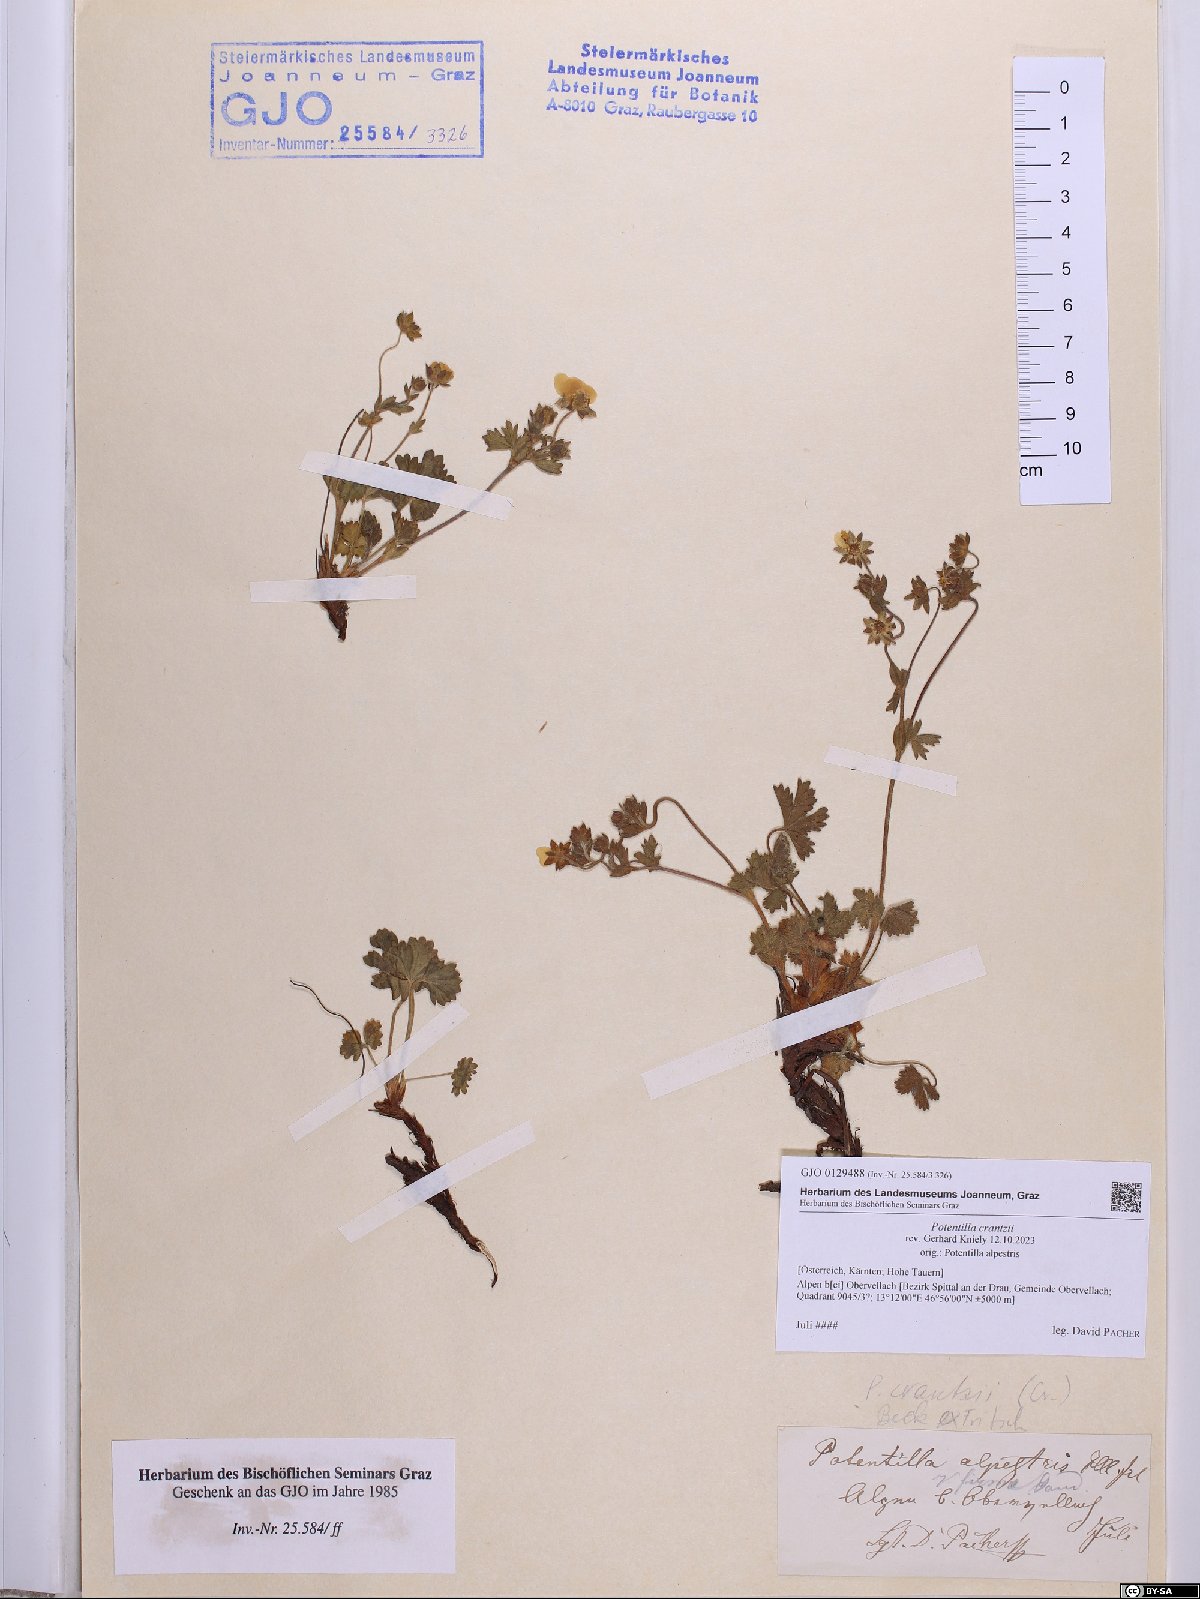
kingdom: Plantae
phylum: Tracheophyta
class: Magnoliopsida
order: Rosales
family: Rosaceae
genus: Potentilla
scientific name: Potentilla crantzii
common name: Alpine cinquefoil
